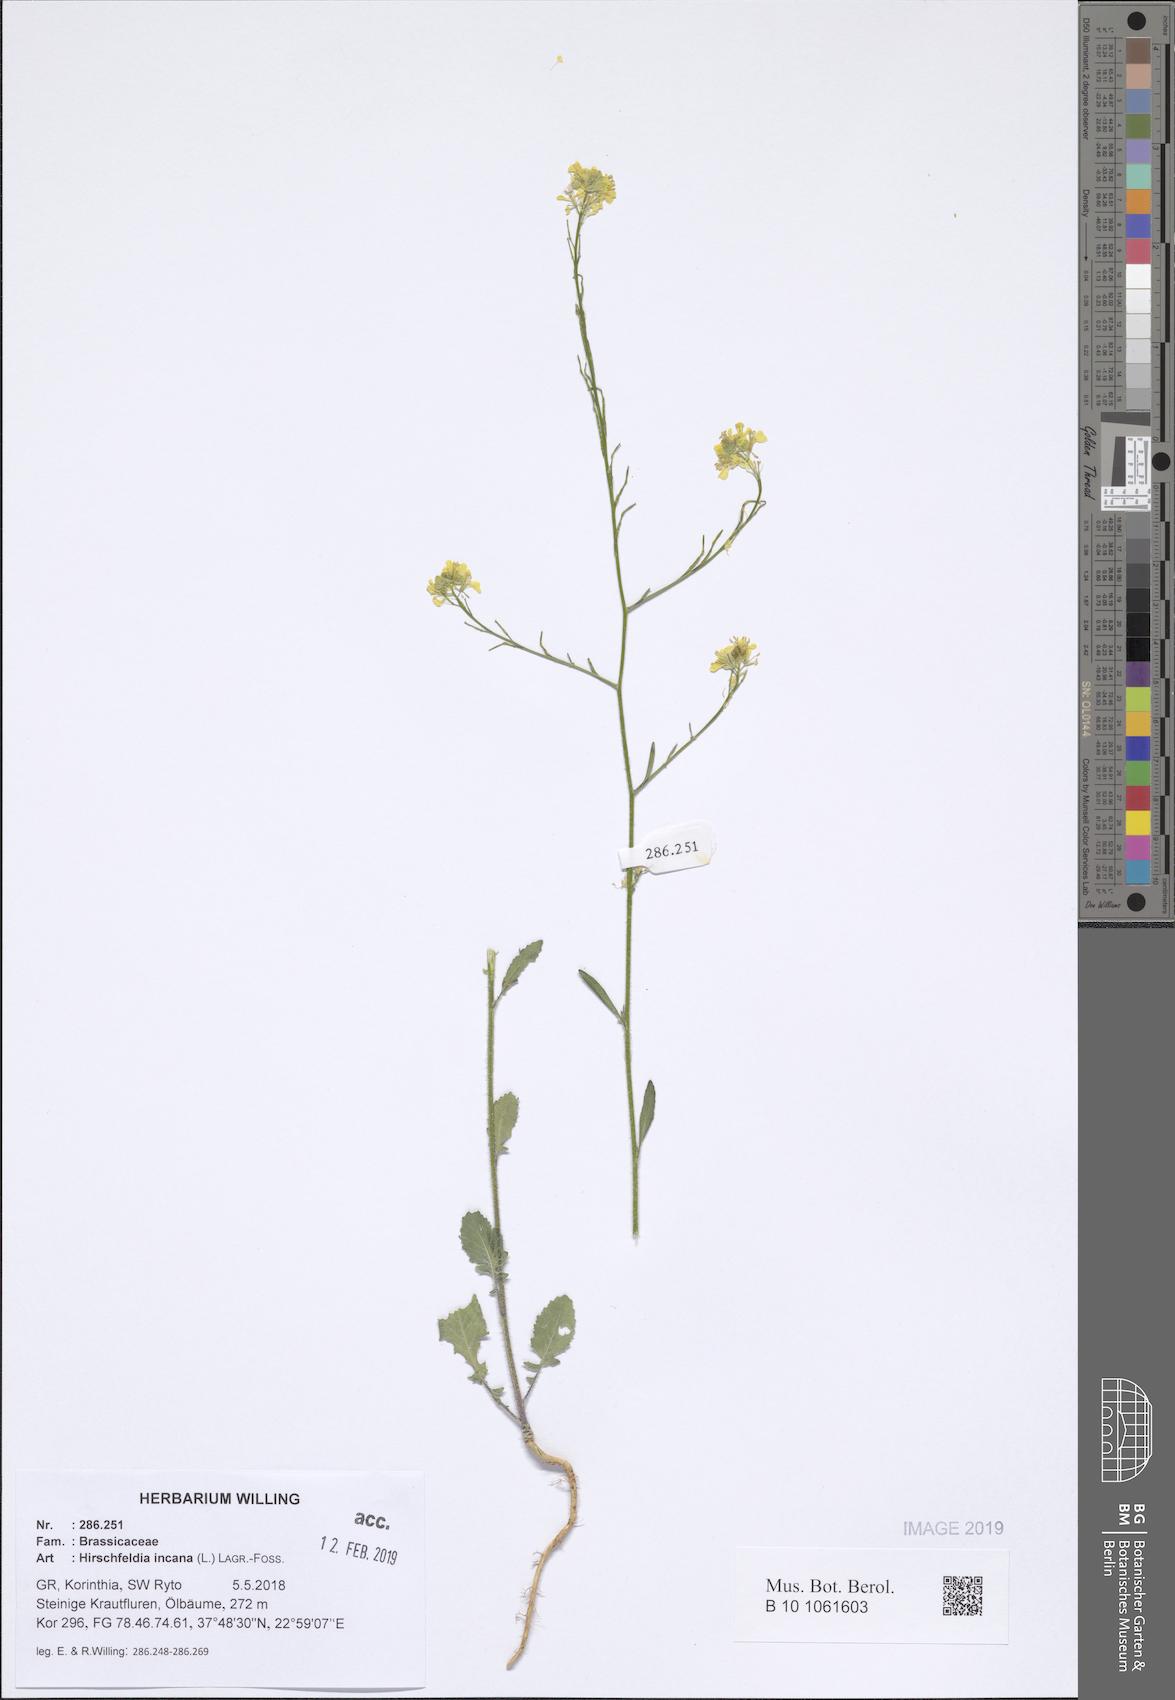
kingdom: Plantae
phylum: Tracheophyta
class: Magnoliopsida
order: Brassicales
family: Brassicaceae
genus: Hirschfeldia
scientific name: Hirschfeldia incana
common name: Hoary mustard
